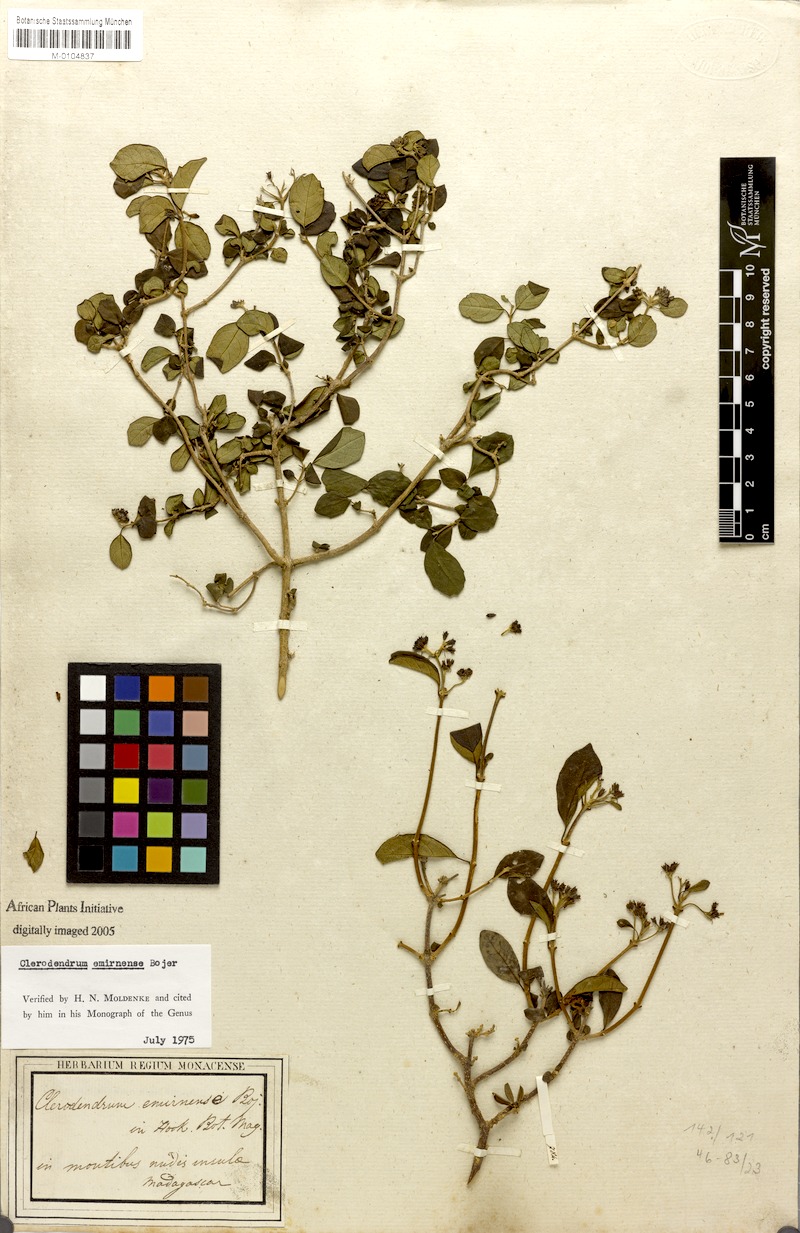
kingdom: Plantae
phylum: Tracheophyta
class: Magnoliopsida
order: Lamiales
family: Lamiaceae
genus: Clerodendrum
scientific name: Clerodendrum emirnense
